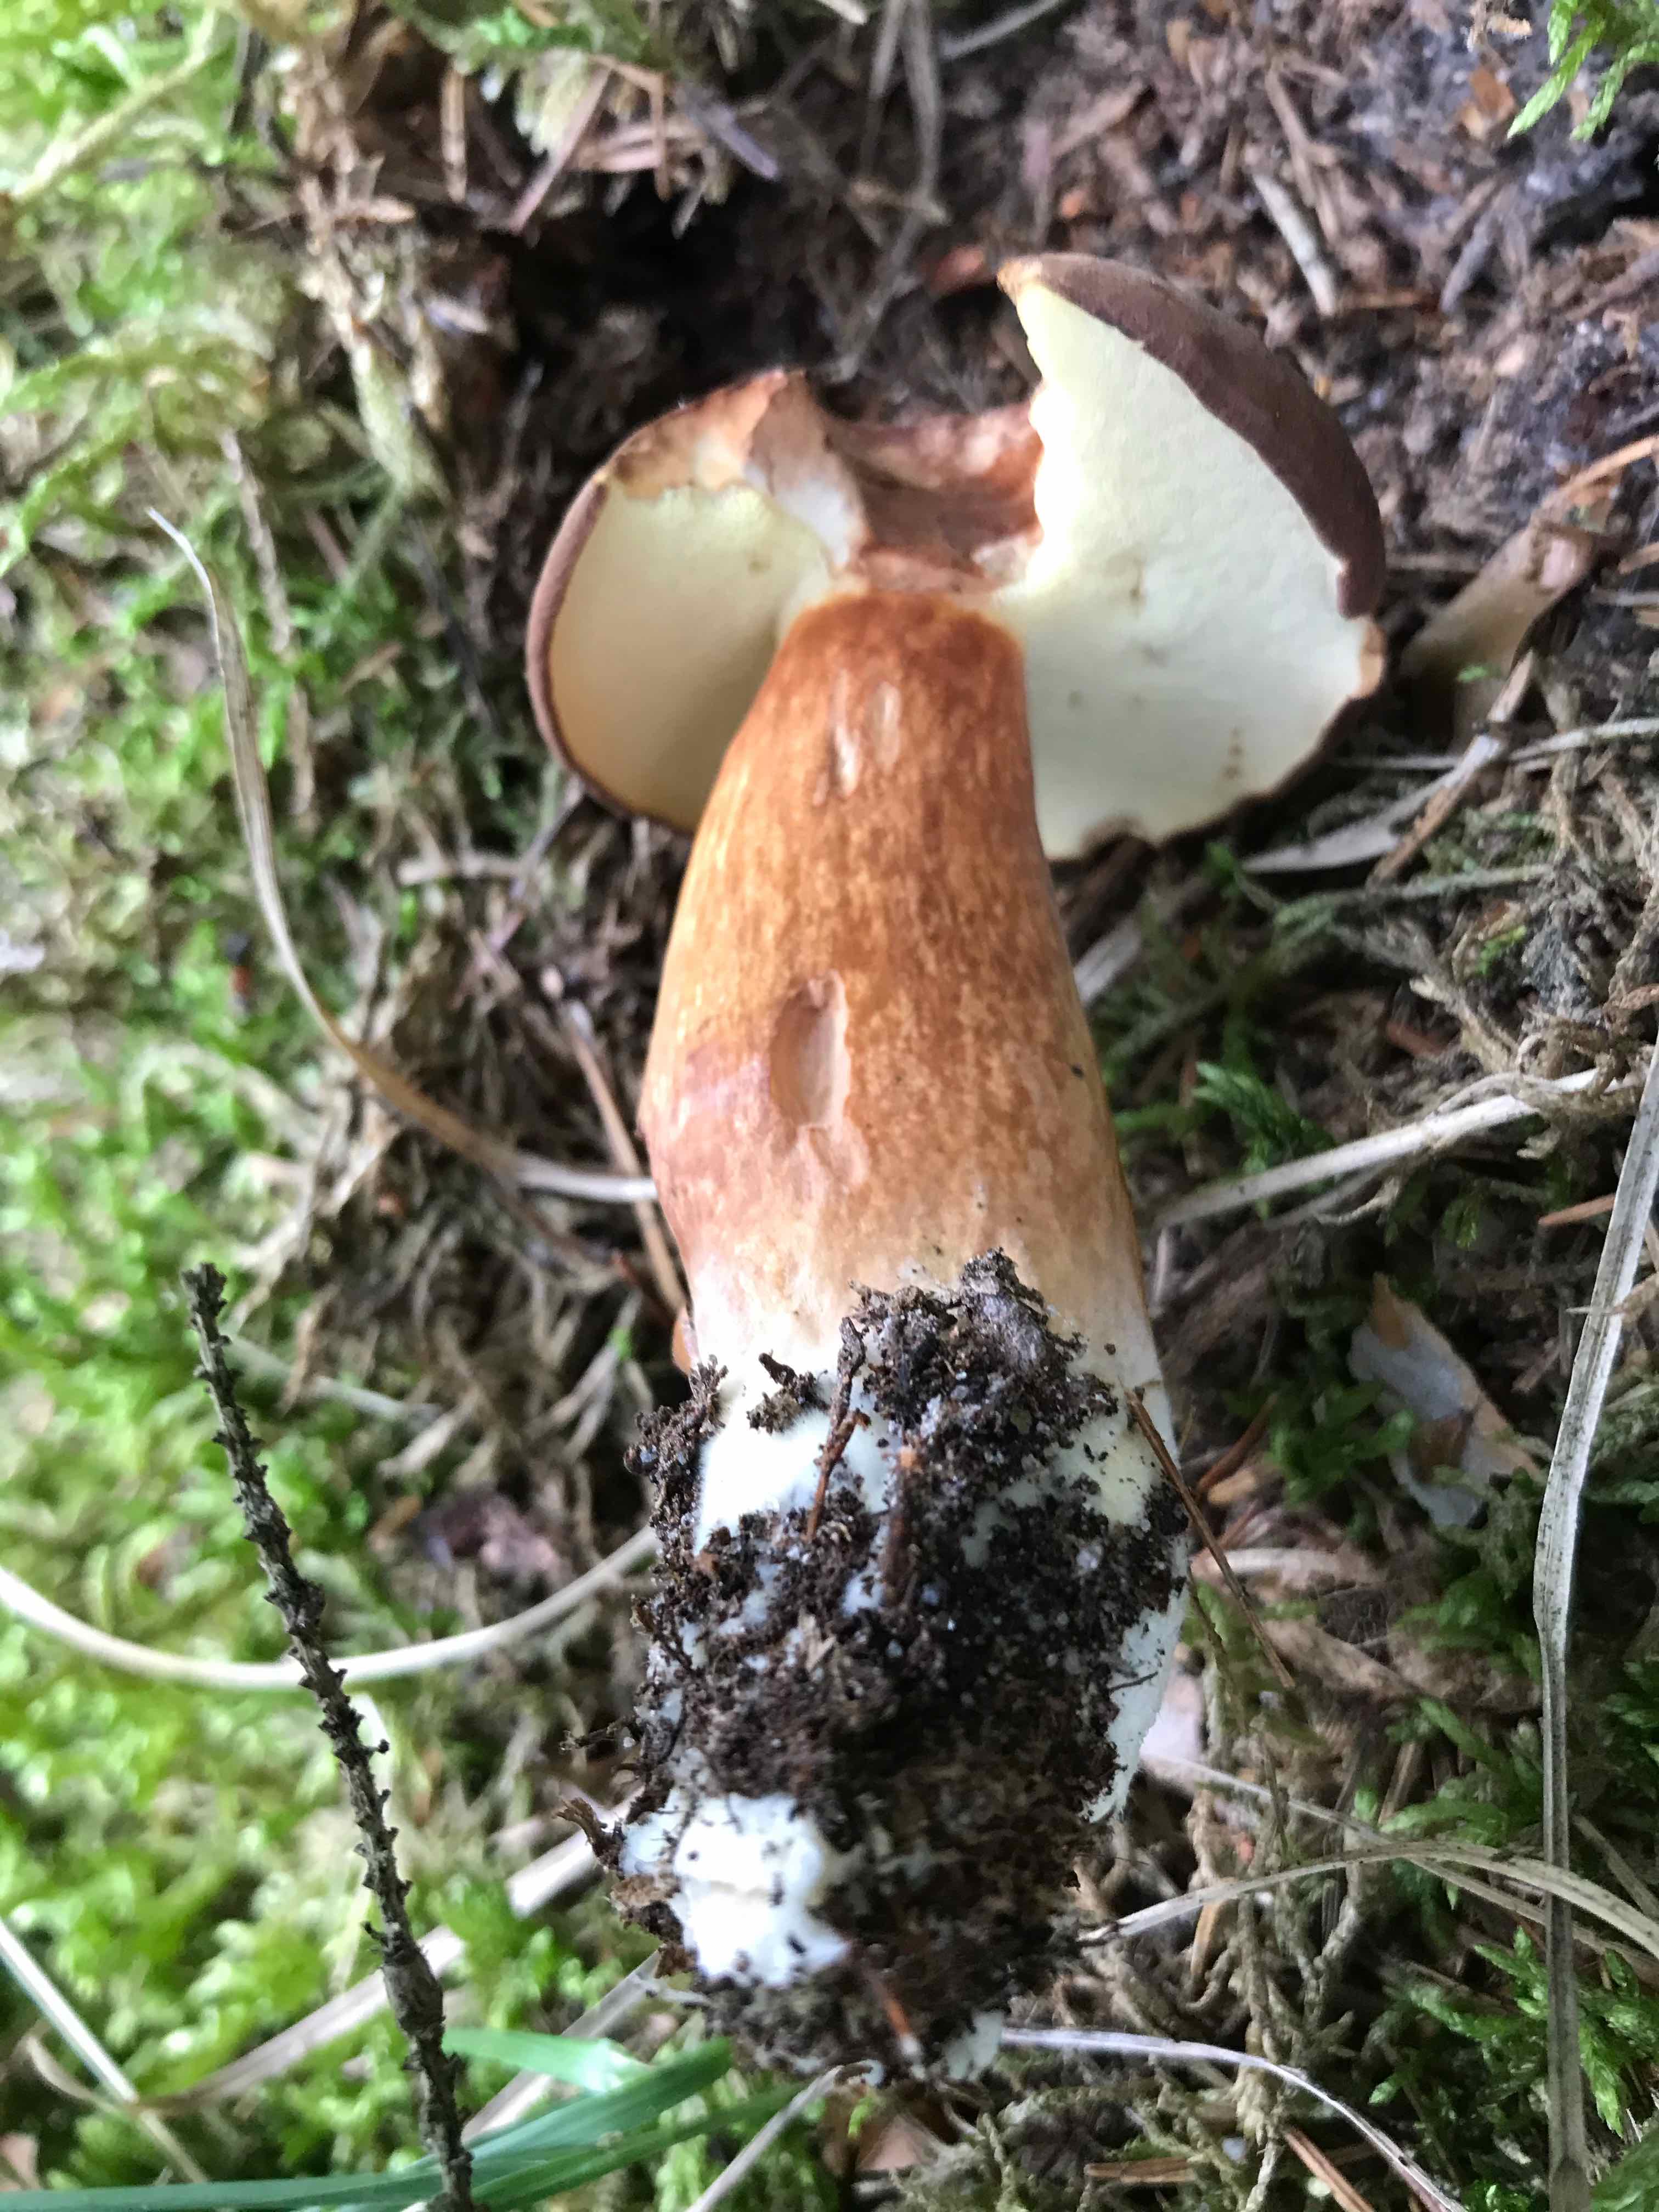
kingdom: Fungi
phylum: Basidiomycota
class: Agaricomycetes
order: Boletales
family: Boletaceae
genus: Imleria
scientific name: Imleria badia
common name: brunstokket rørhat
